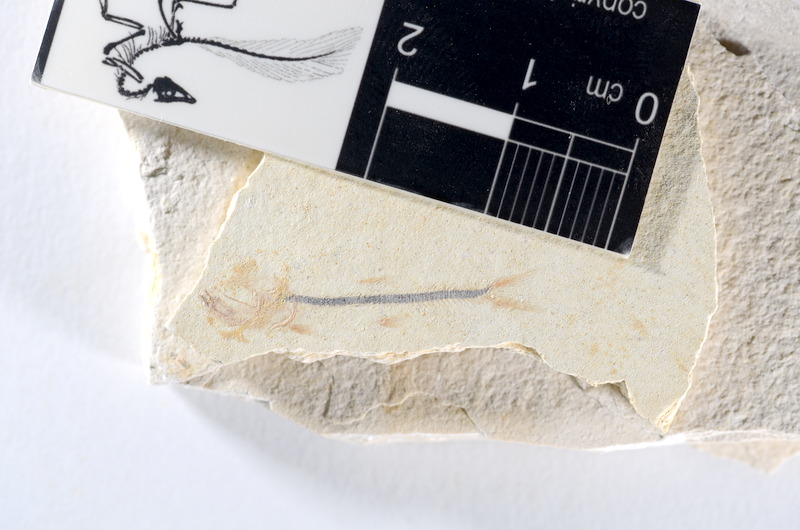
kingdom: Animalia
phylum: Chordata
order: Salmoniformes
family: Orthogonikleithridae
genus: Orthogonikleithrus
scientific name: Orthogonikleithrus hoelli
